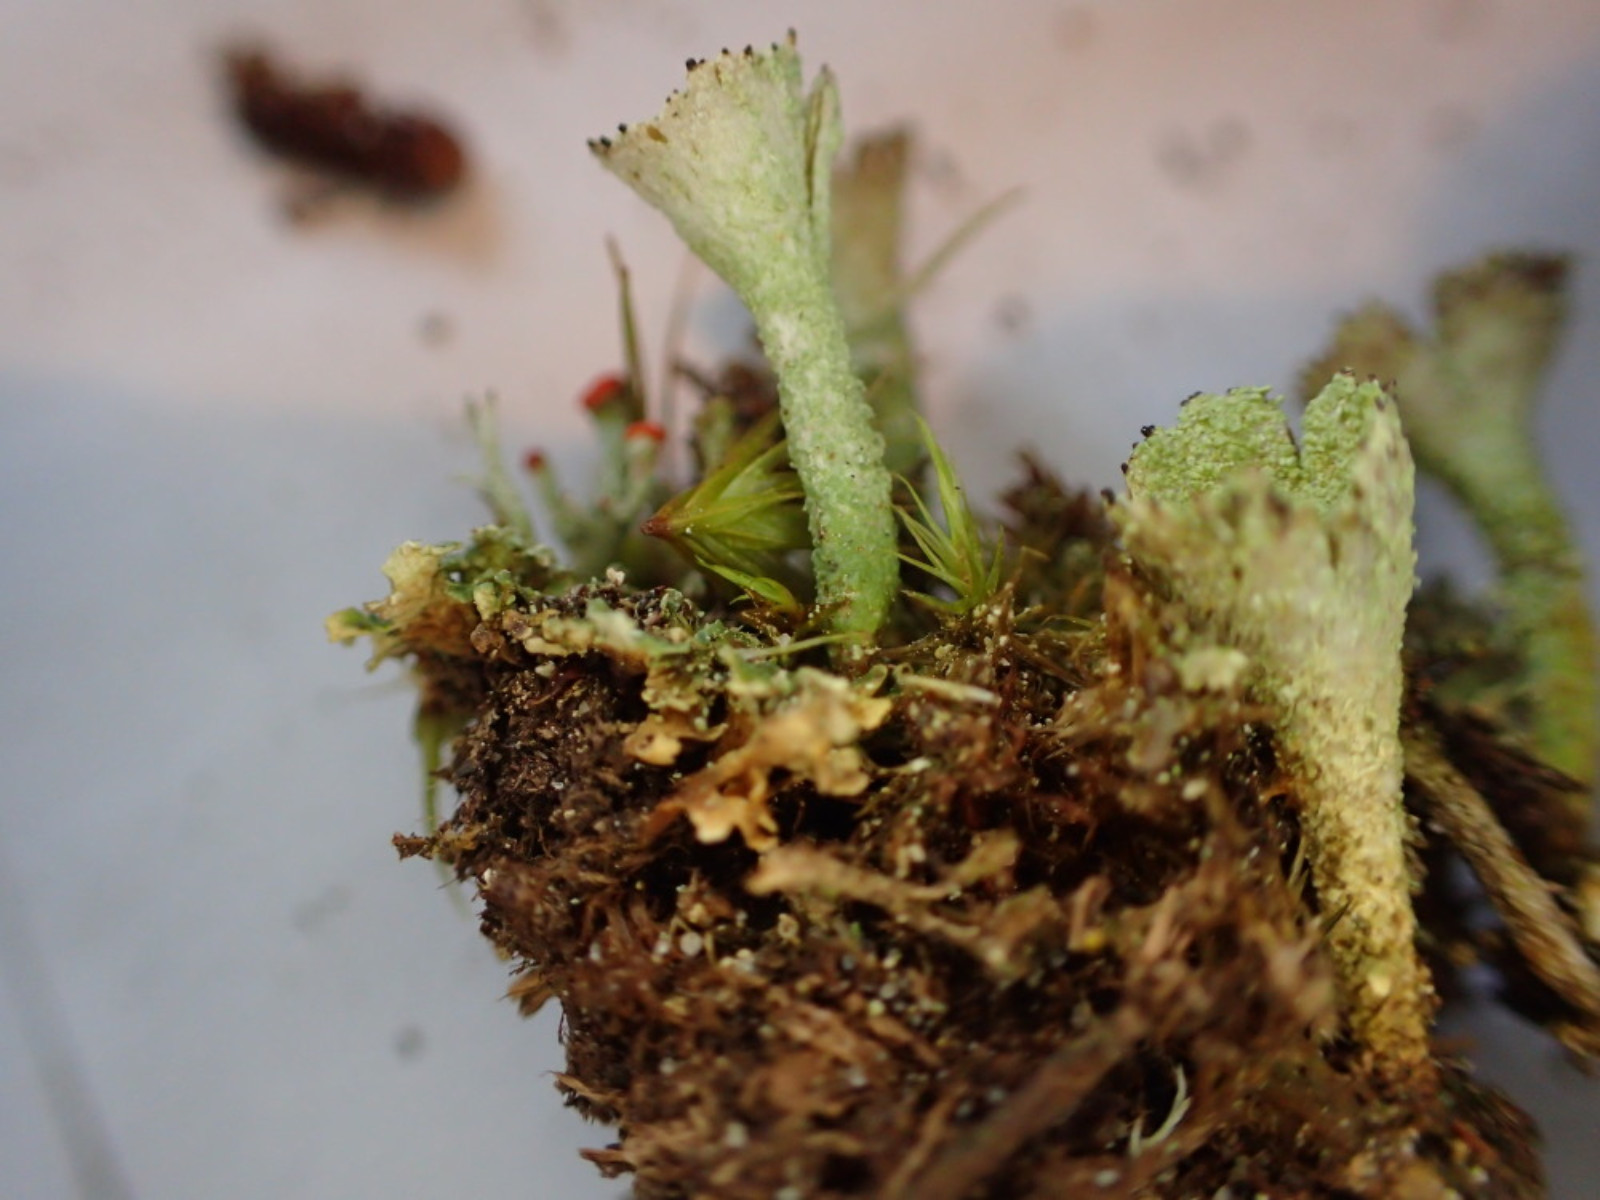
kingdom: Fungi
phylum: Ascomycota
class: Lecanoromycetes
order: Lecanorales
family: Cladoniaceae
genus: Cladonia
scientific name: Cladonia
